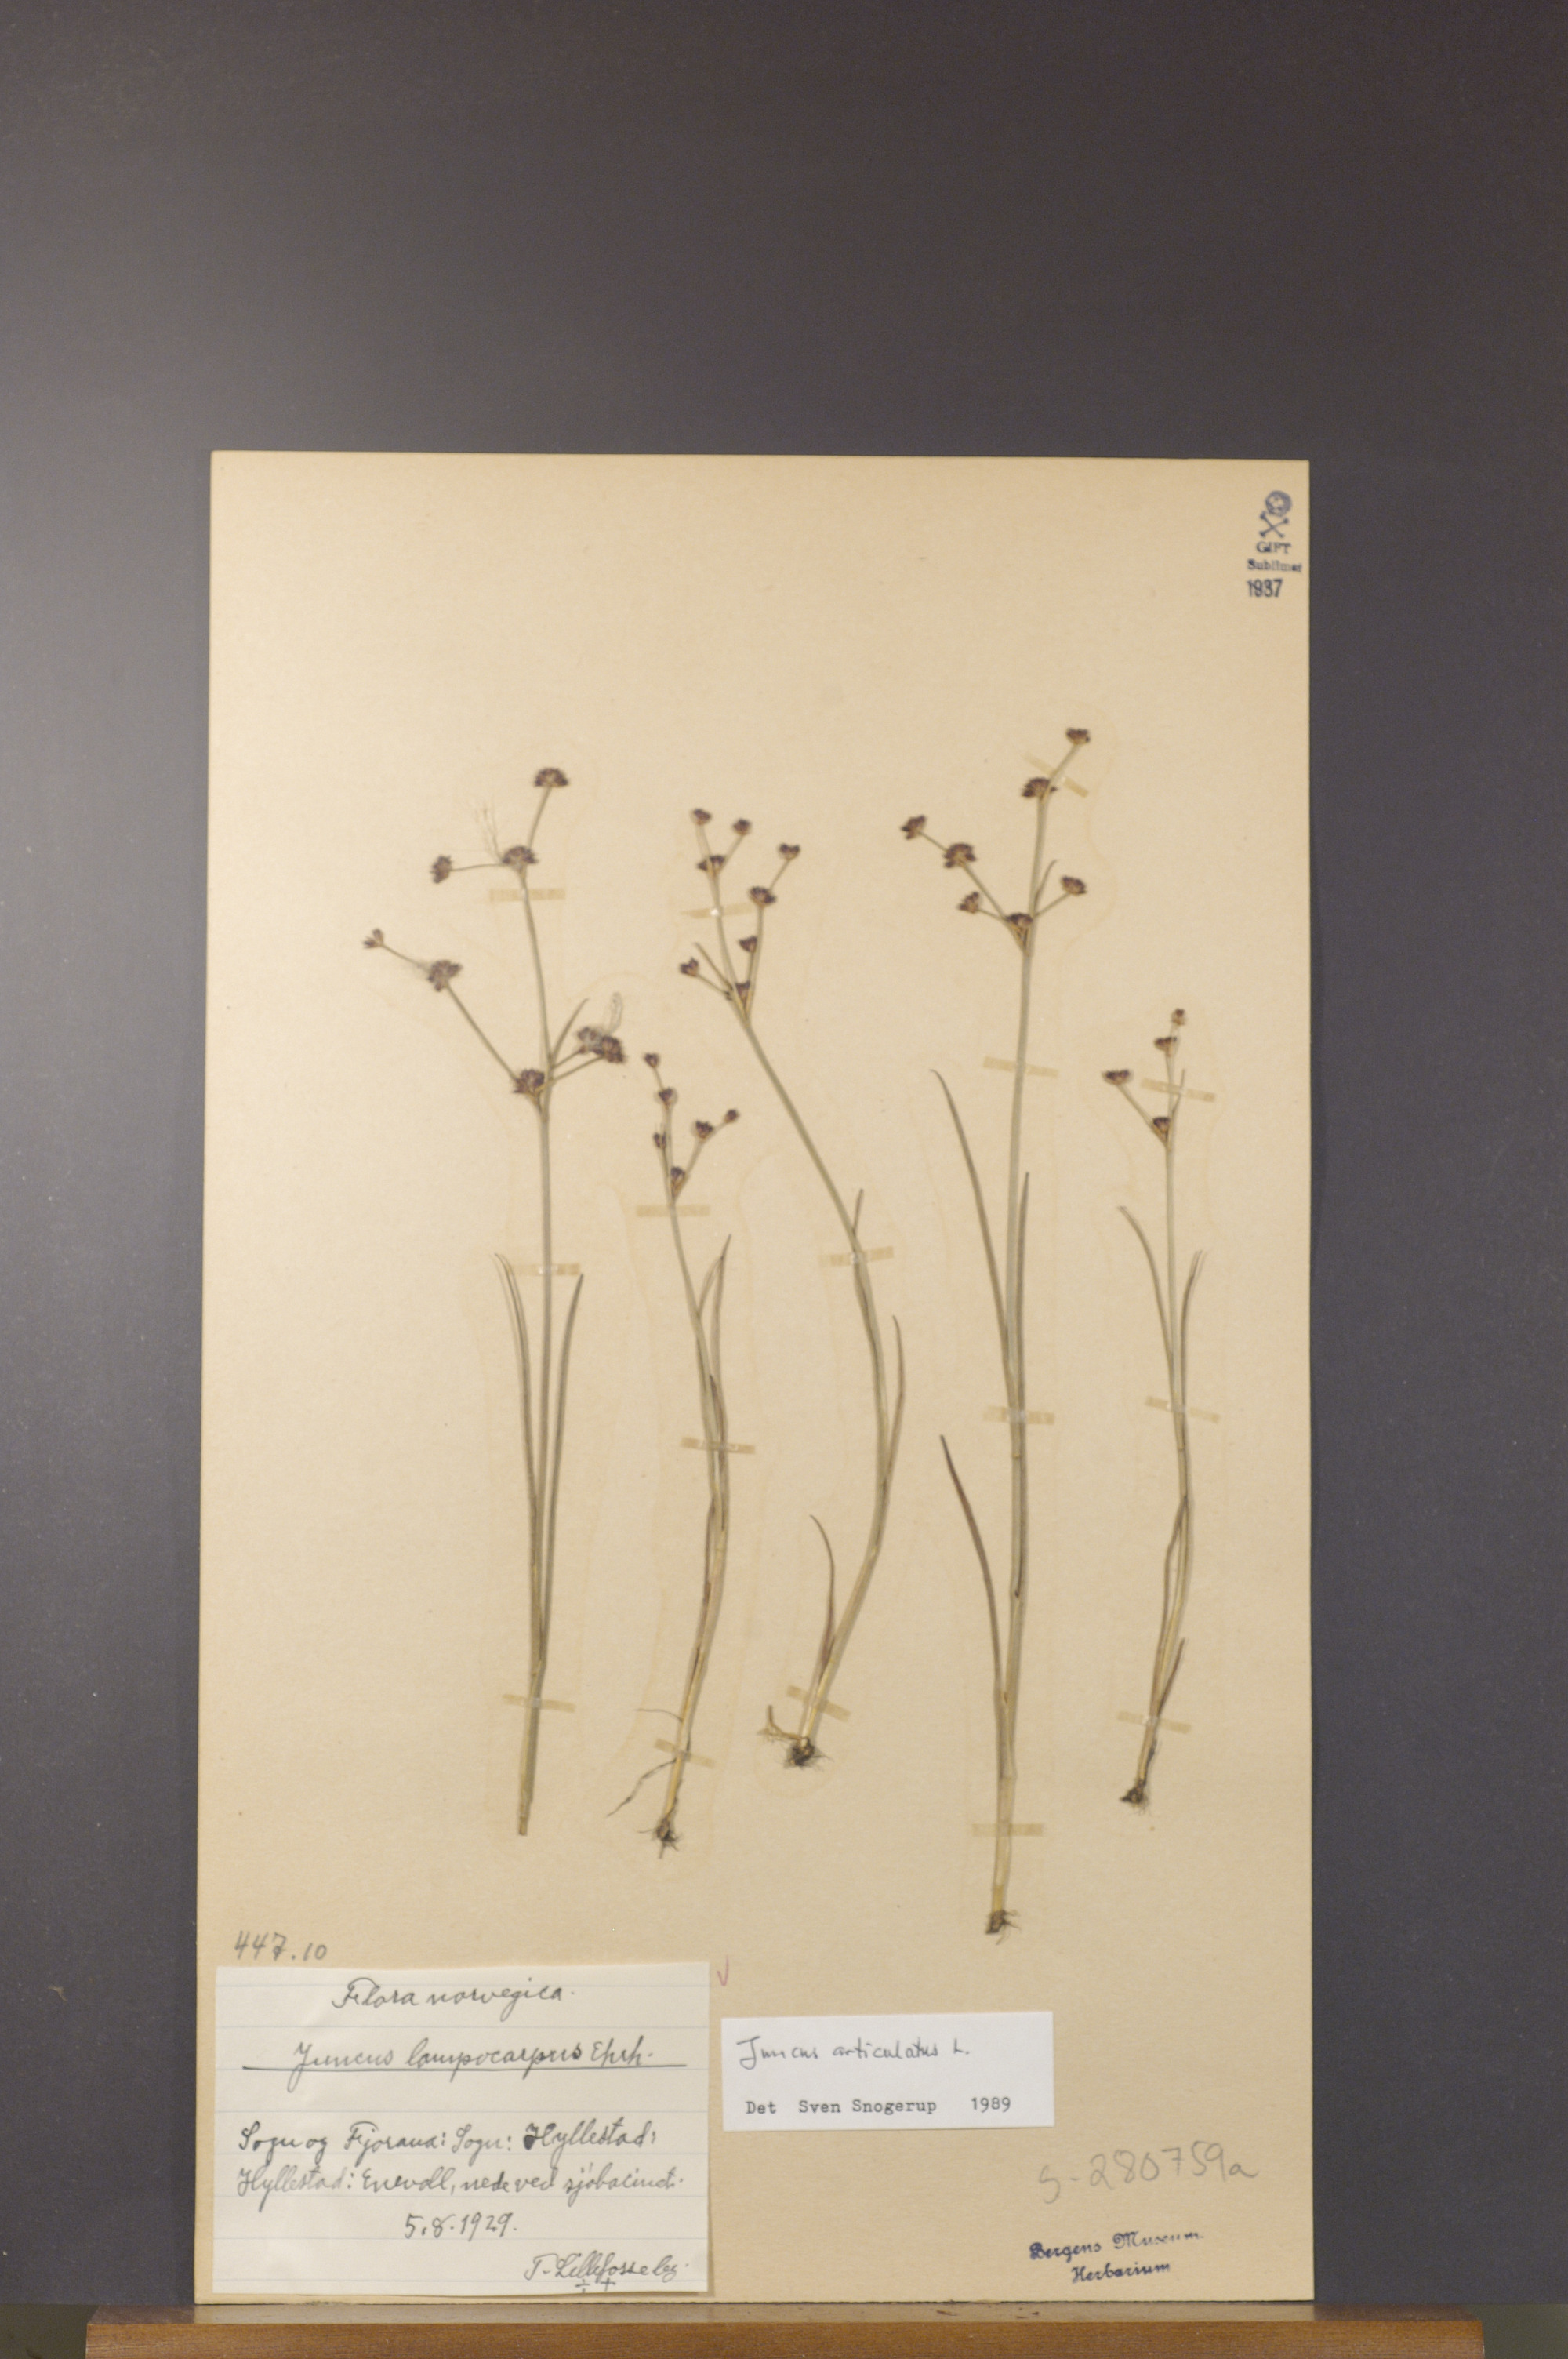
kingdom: Plantae
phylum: Tracheophyta
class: Liliopsida
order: Poales
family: Juncaceae
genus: Juncus
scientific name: Juncus articulatus
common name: Jointed rush
